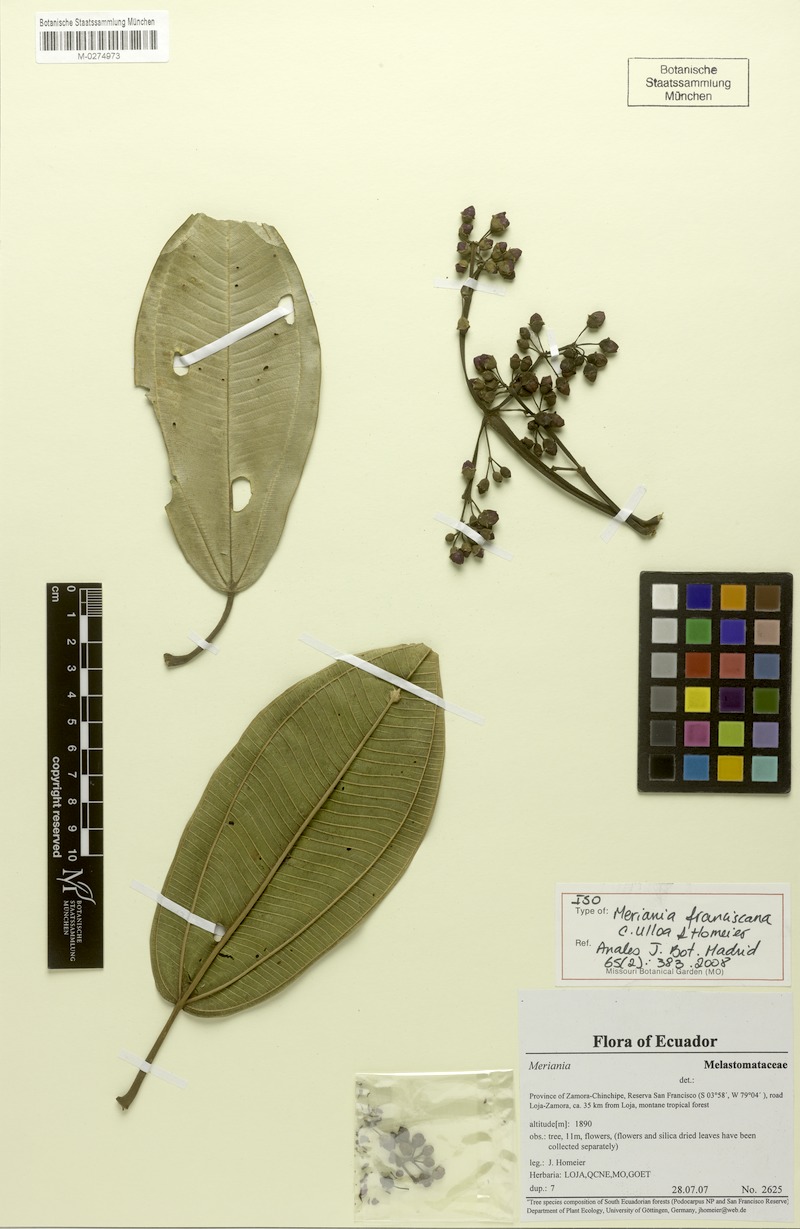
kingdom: Plantae
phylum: Tracheophyta
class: Magnoliopsida
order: Myrtales
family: Melastomataceae
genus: Meriania
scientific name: Meriania macrophylla
